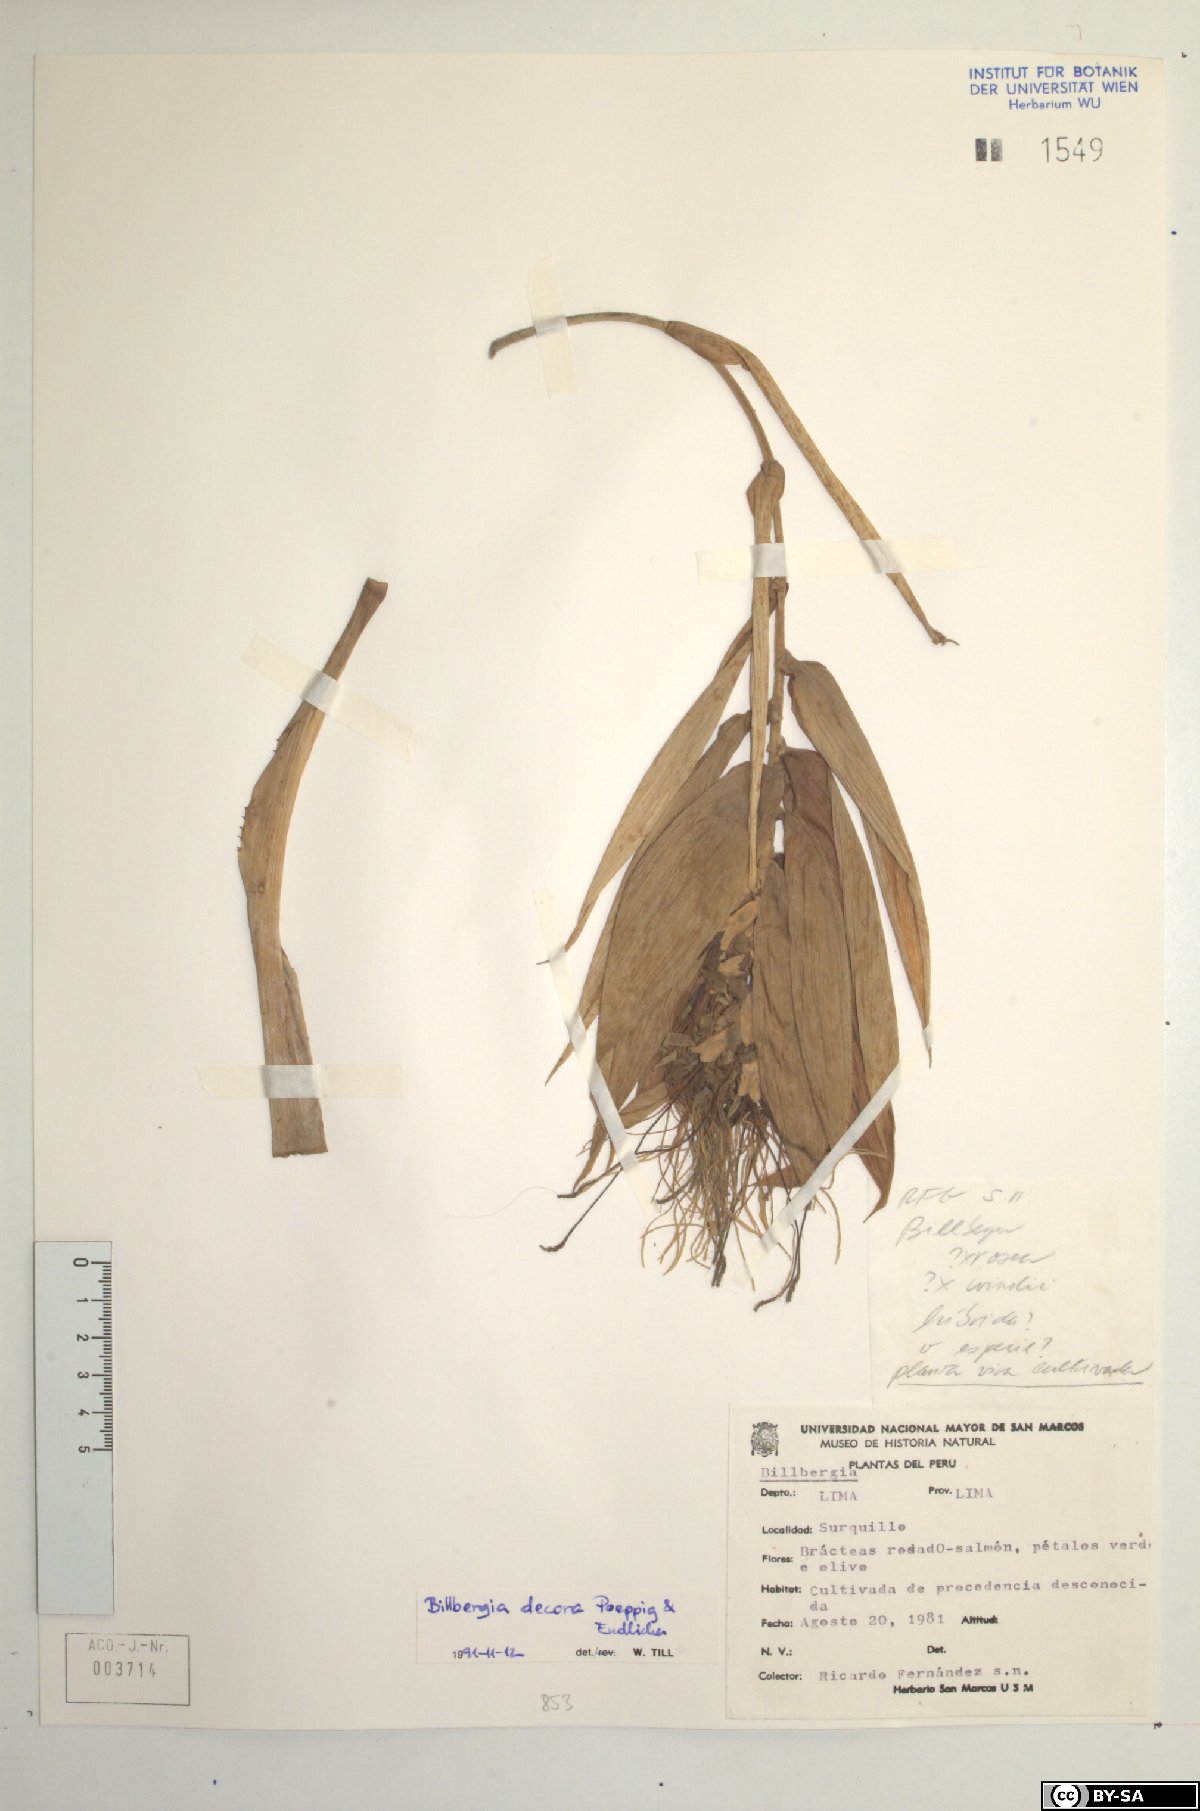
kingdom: Plantae
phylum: Tracheophyta
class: Liliopsida
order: Poales
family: Bromeliaceae
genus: Billbergia
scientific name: Billbergia decora
